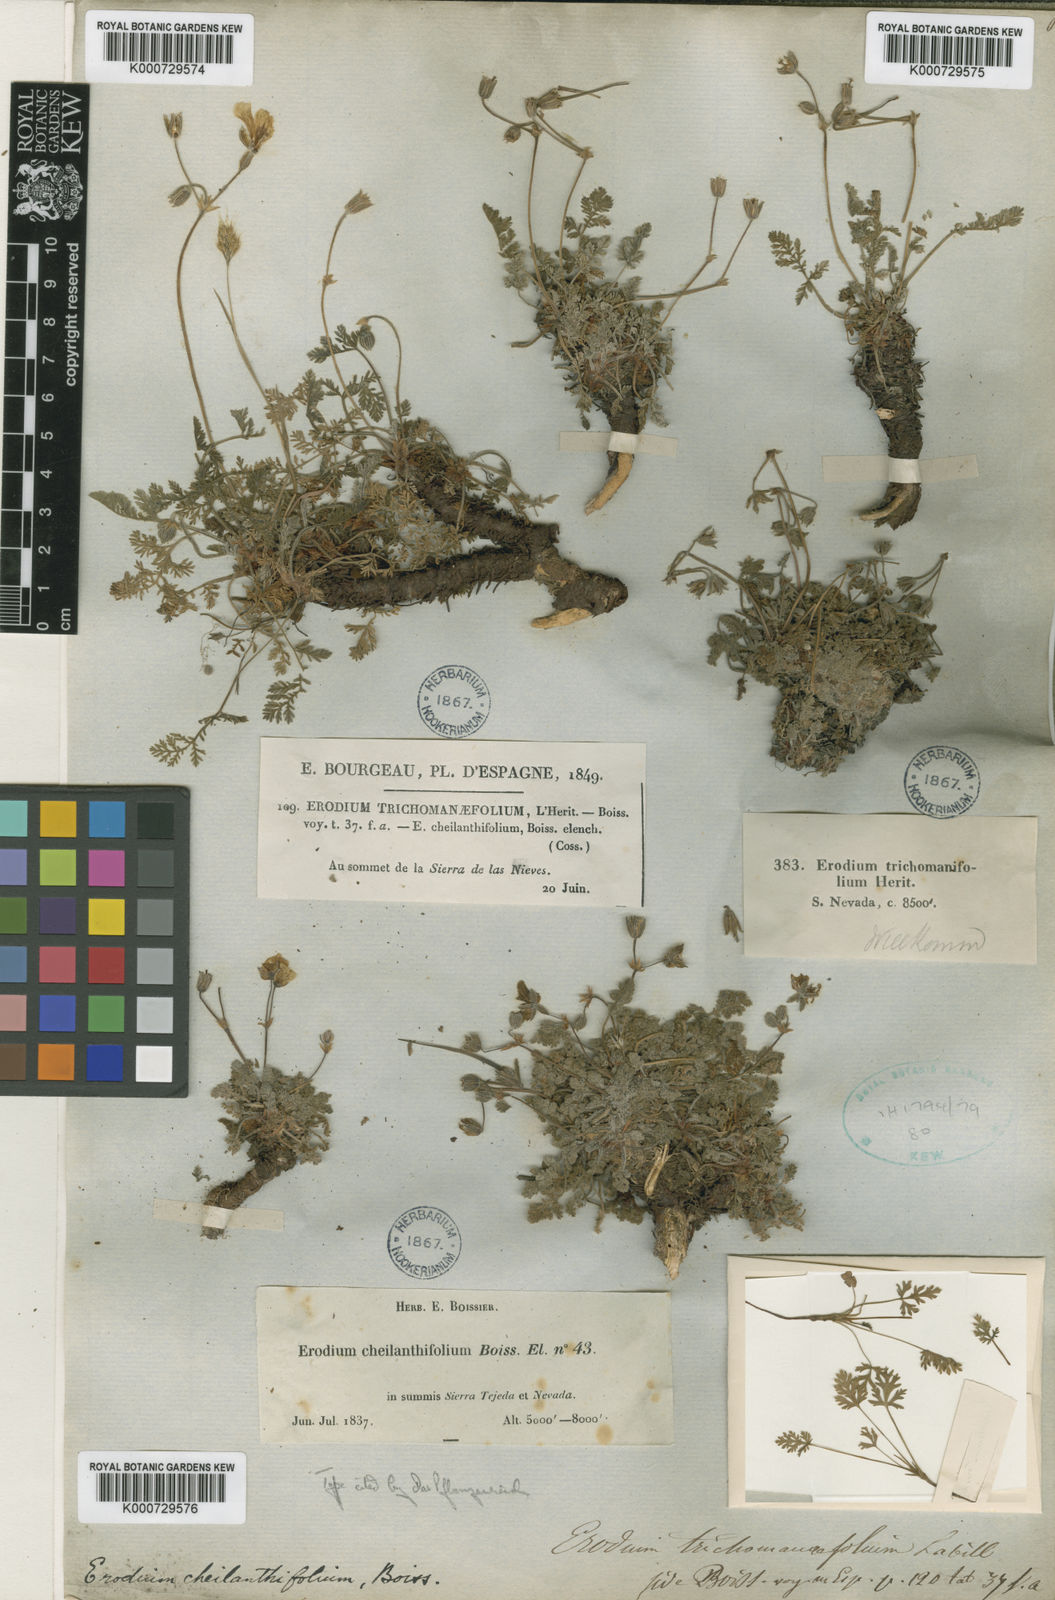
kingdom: Plantae
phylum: Tracheophyta
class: Magnoliopsida
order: Geraniales
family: Geraniaceae
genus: Erodium
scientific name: Erodium cheilanthifolium
